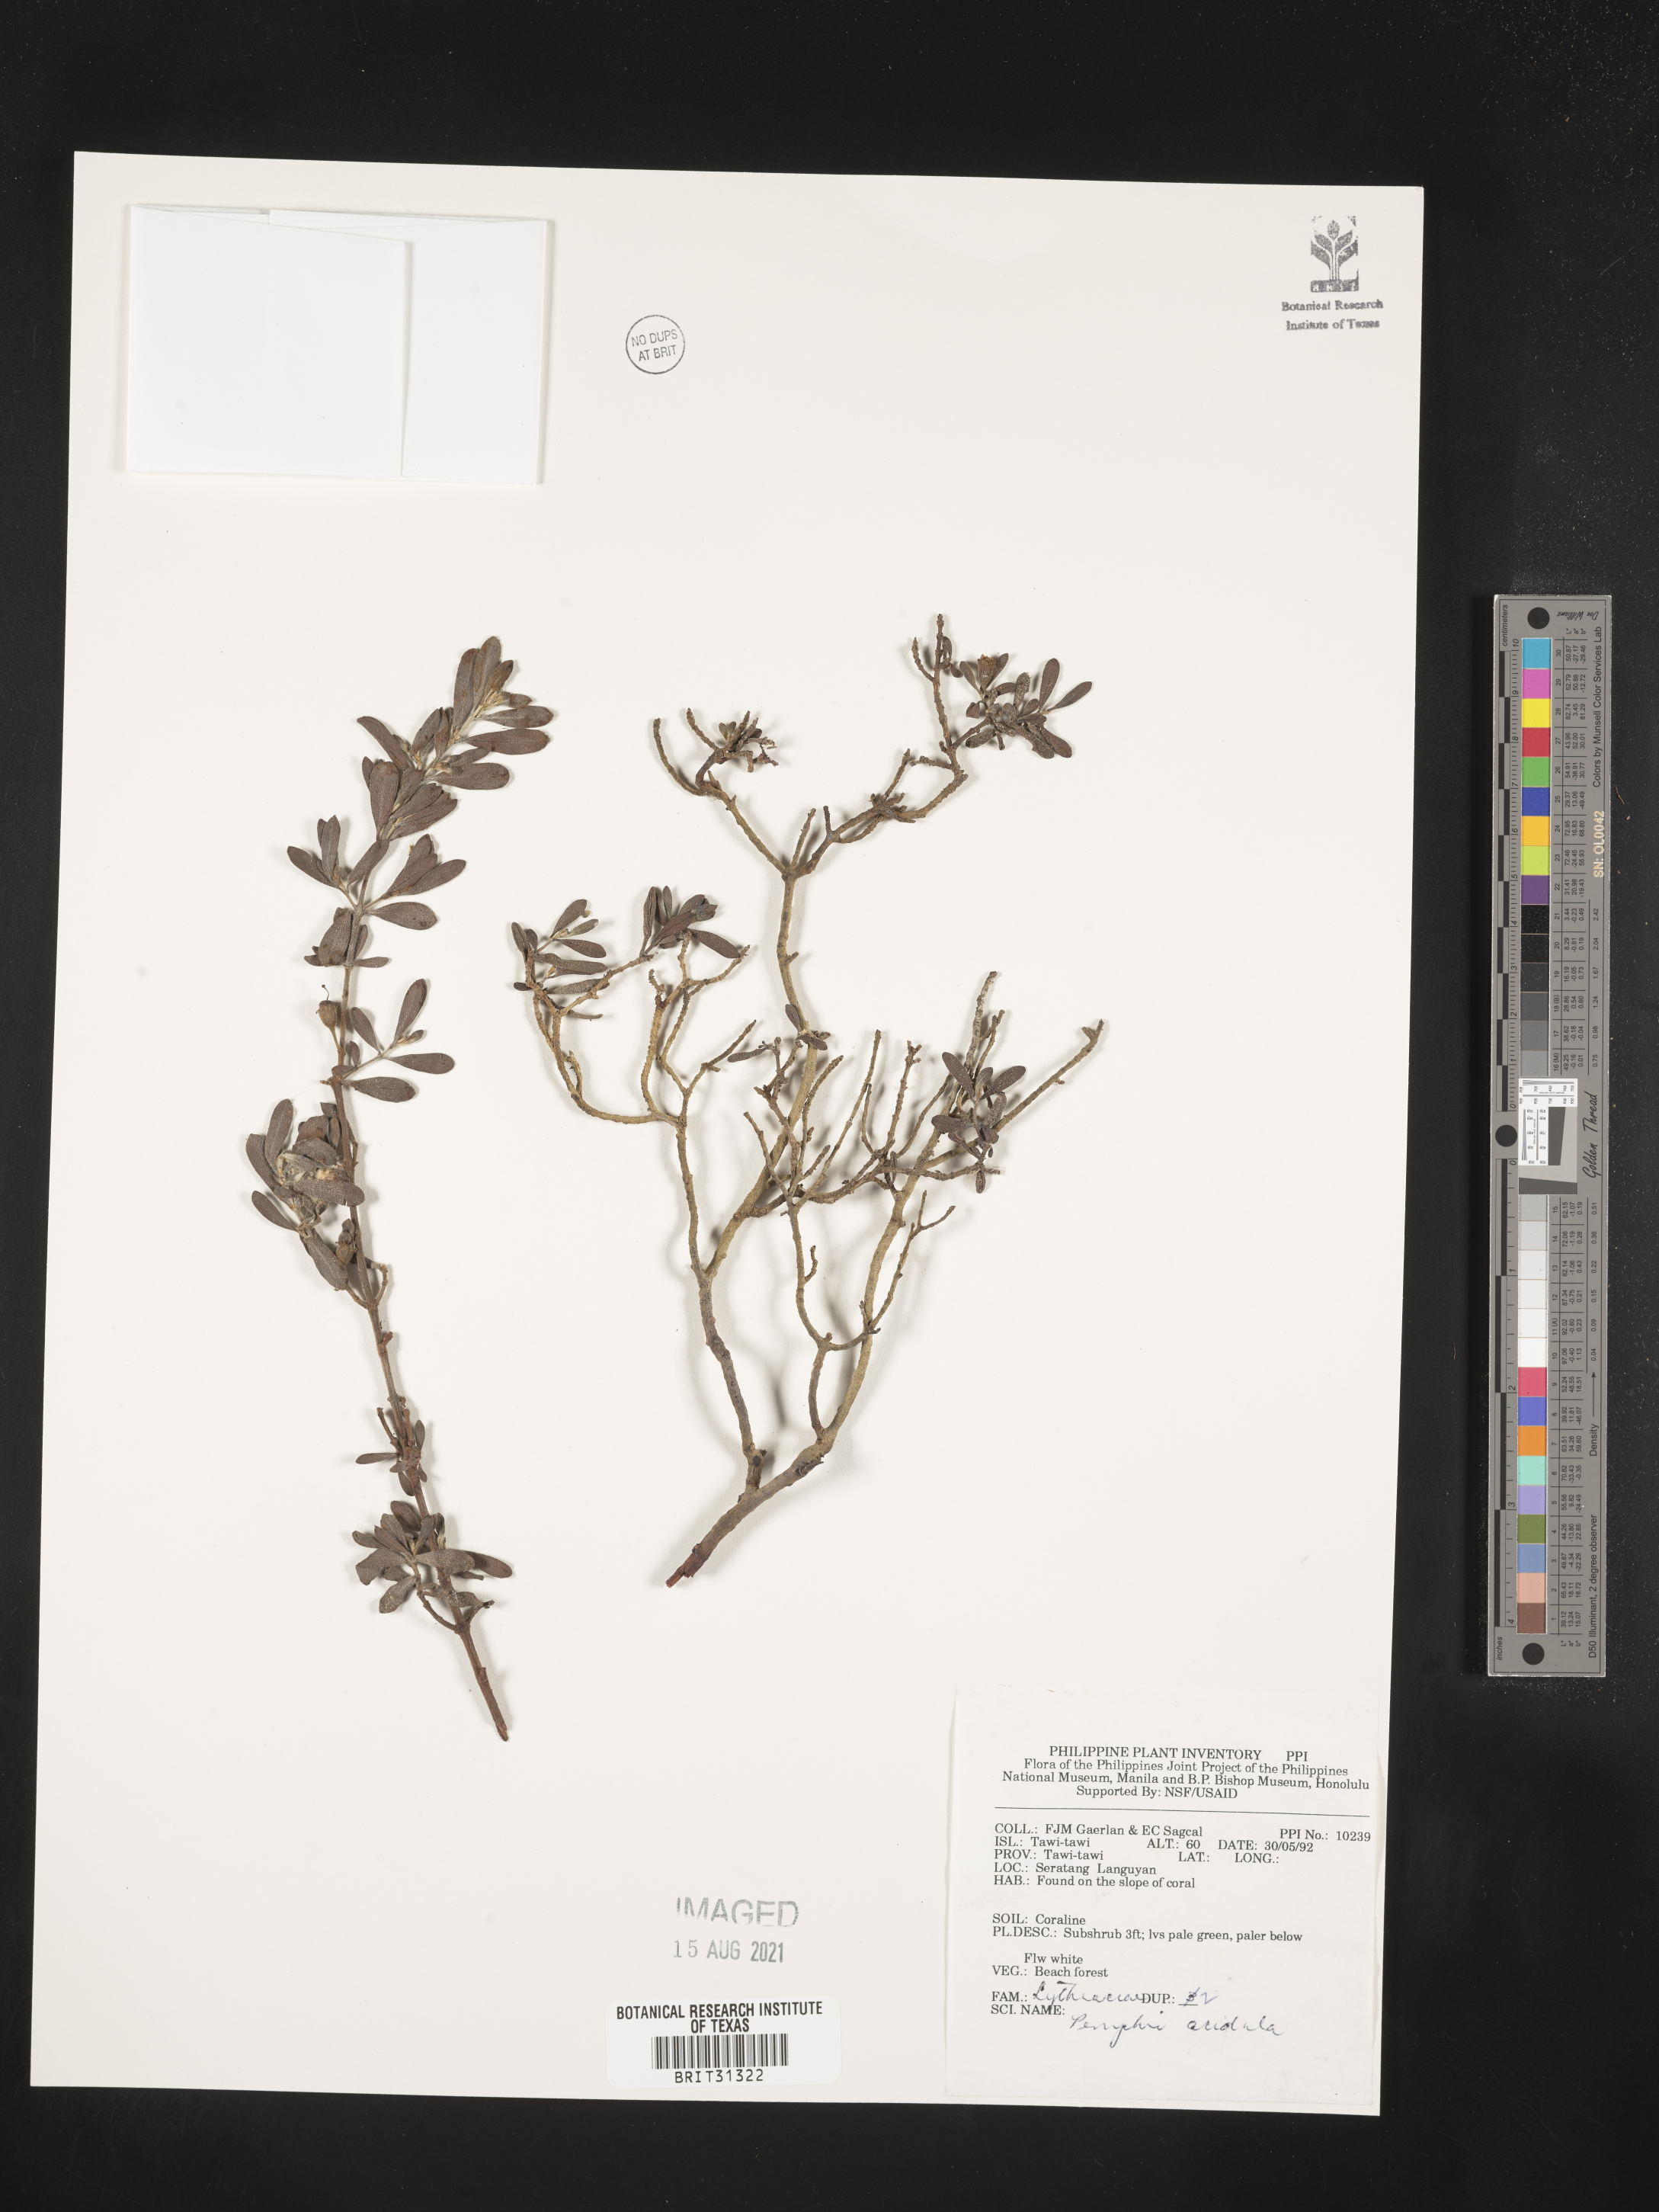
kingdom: Plantae
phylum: Tracheophyta
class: Magnoliopsida
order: Myrtales
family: Lythraceae
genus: Pemphis
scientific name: Pemphis acidula
